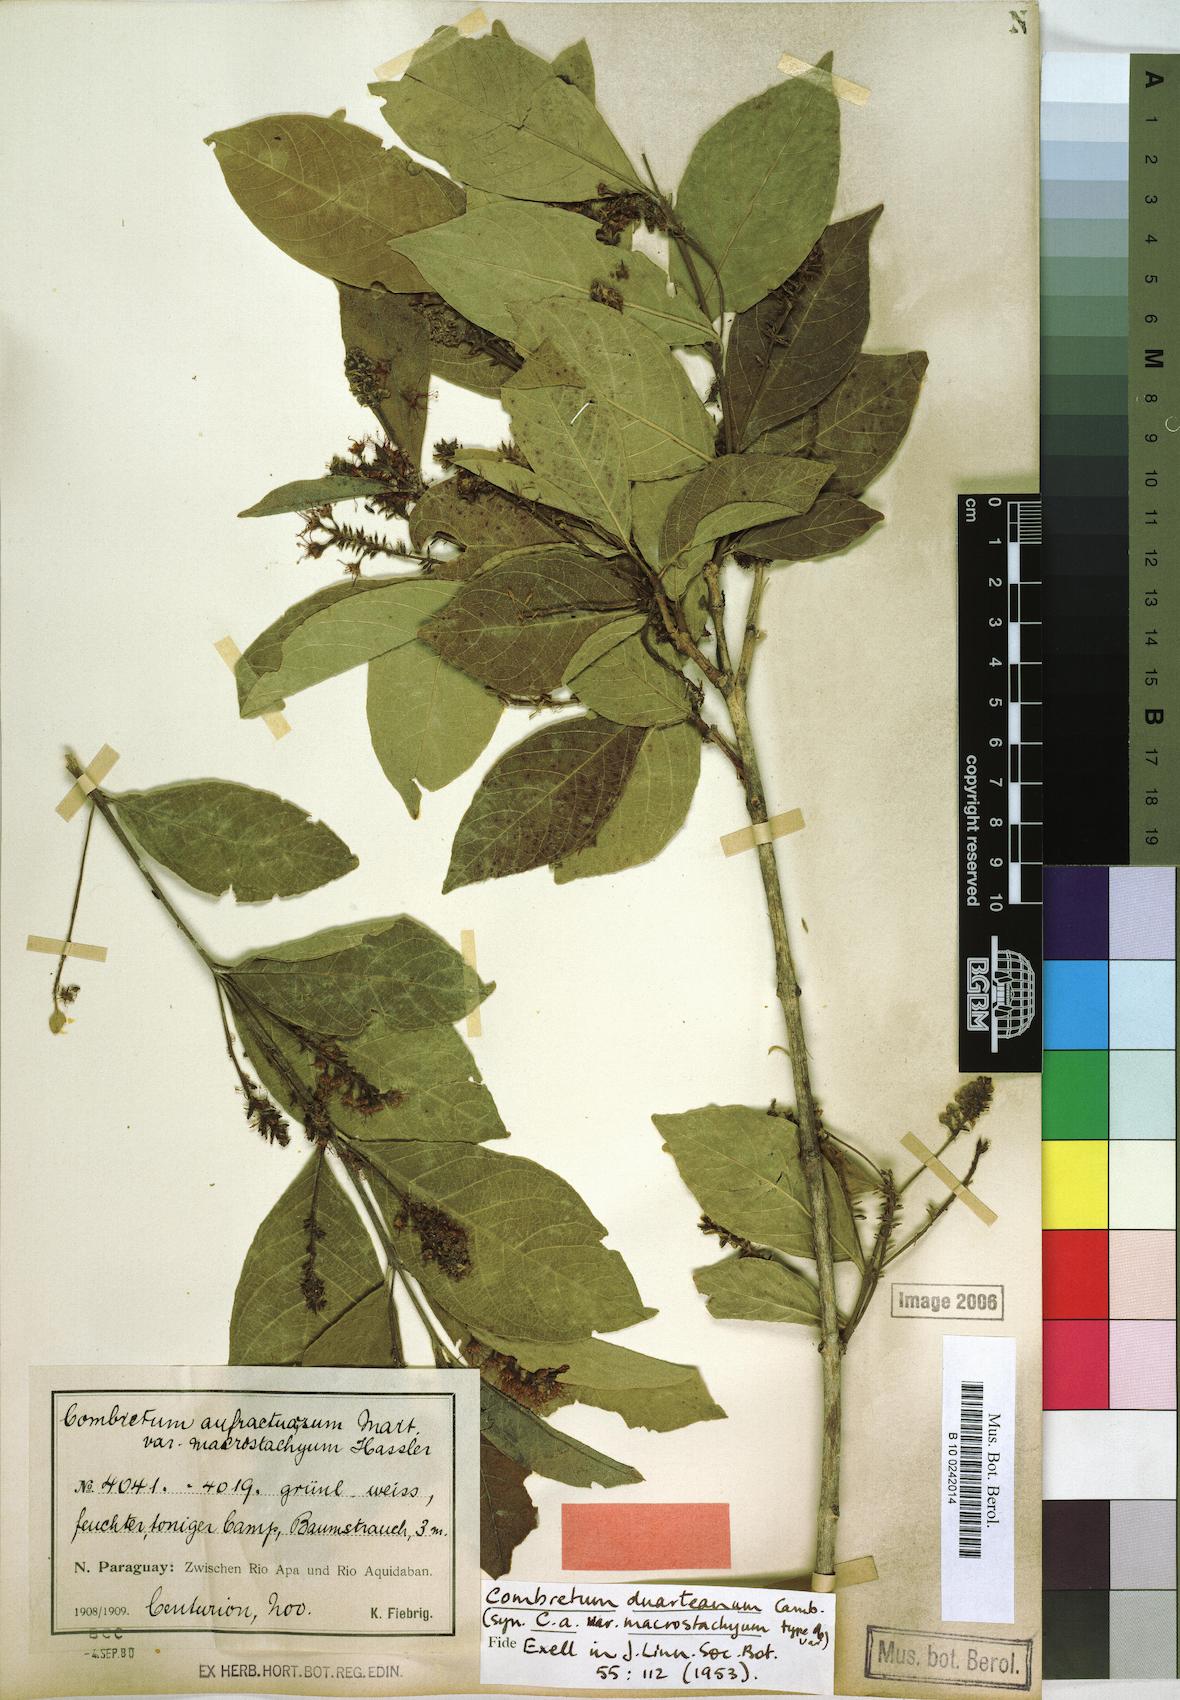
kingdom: Plantae
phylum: Tracheophyta
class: Magnoliopsida
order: Myrtales
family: Combretaceae
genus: Combretum
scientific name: Combretum duarteanum
